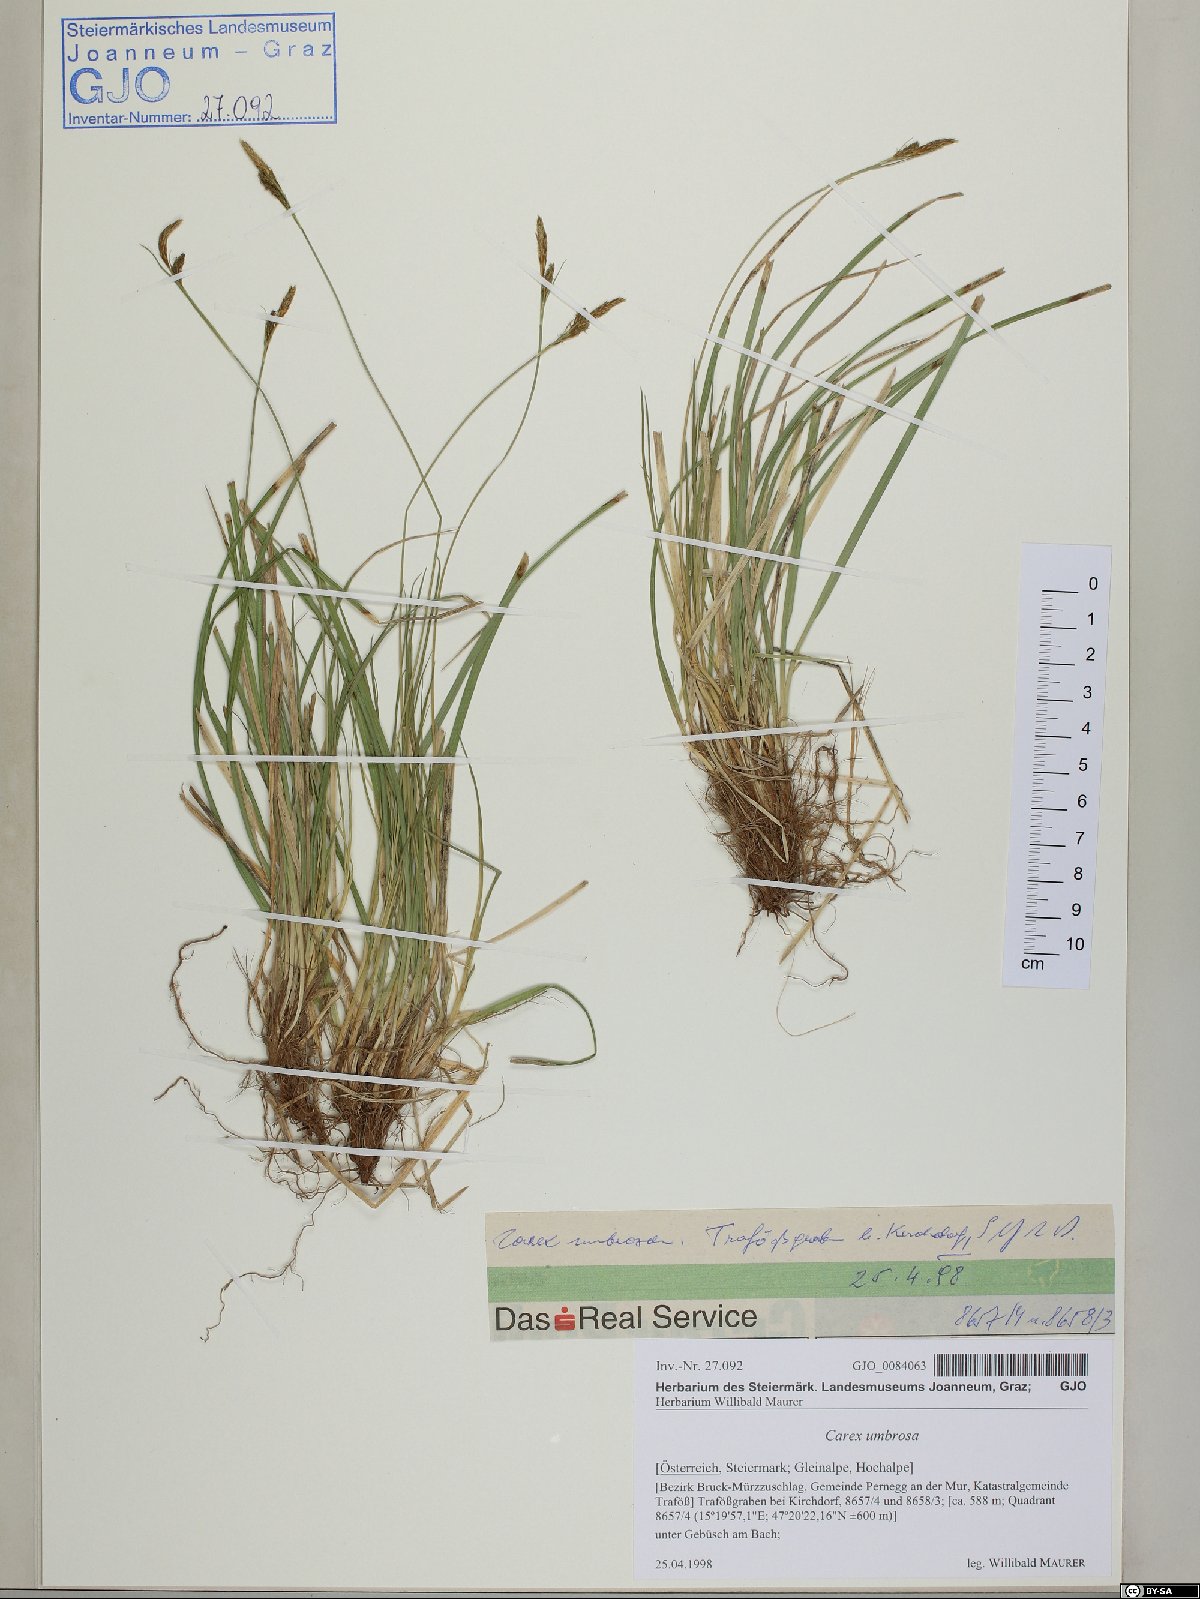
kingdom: Plantae
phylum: Tracheophyta
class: Liliopsida
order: Poales
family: Cyperaceae
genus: Carex
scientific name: Carex umbrosa
